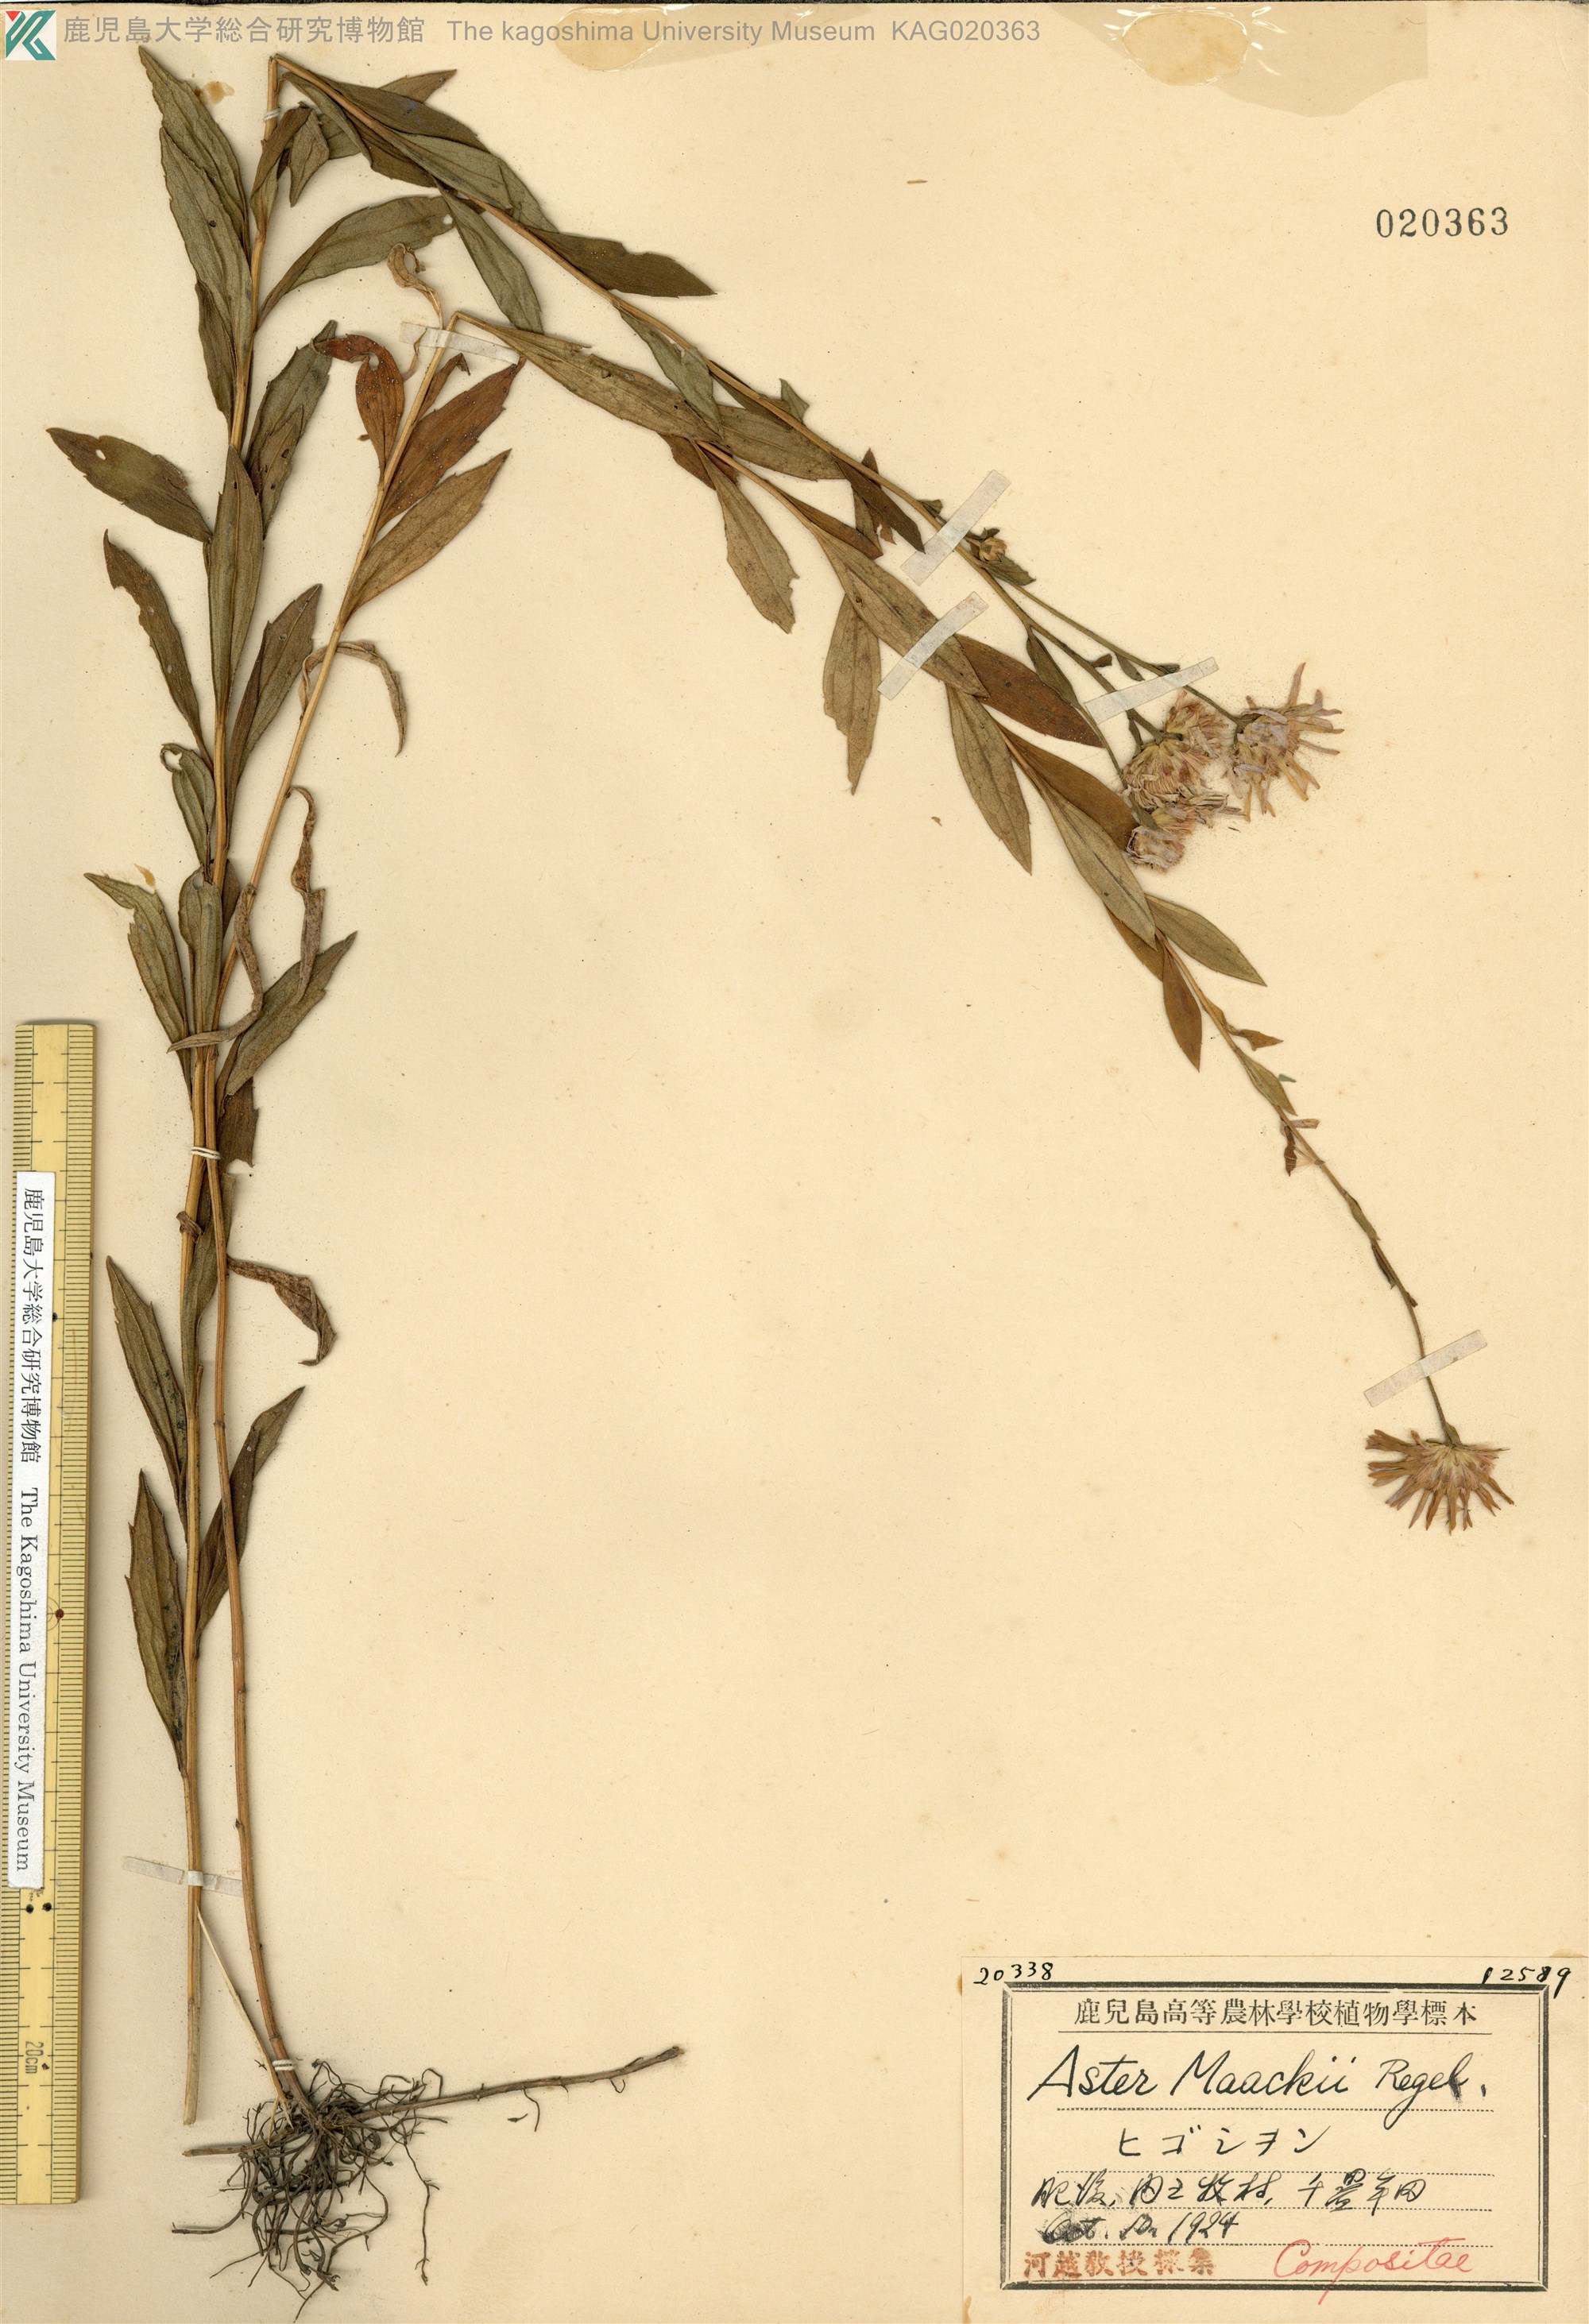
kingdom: Plantae
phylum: Tracheophyta
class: Magnoliopsida
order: Asterales
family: Asteraceae
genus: Aster
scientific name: Aster maackii
